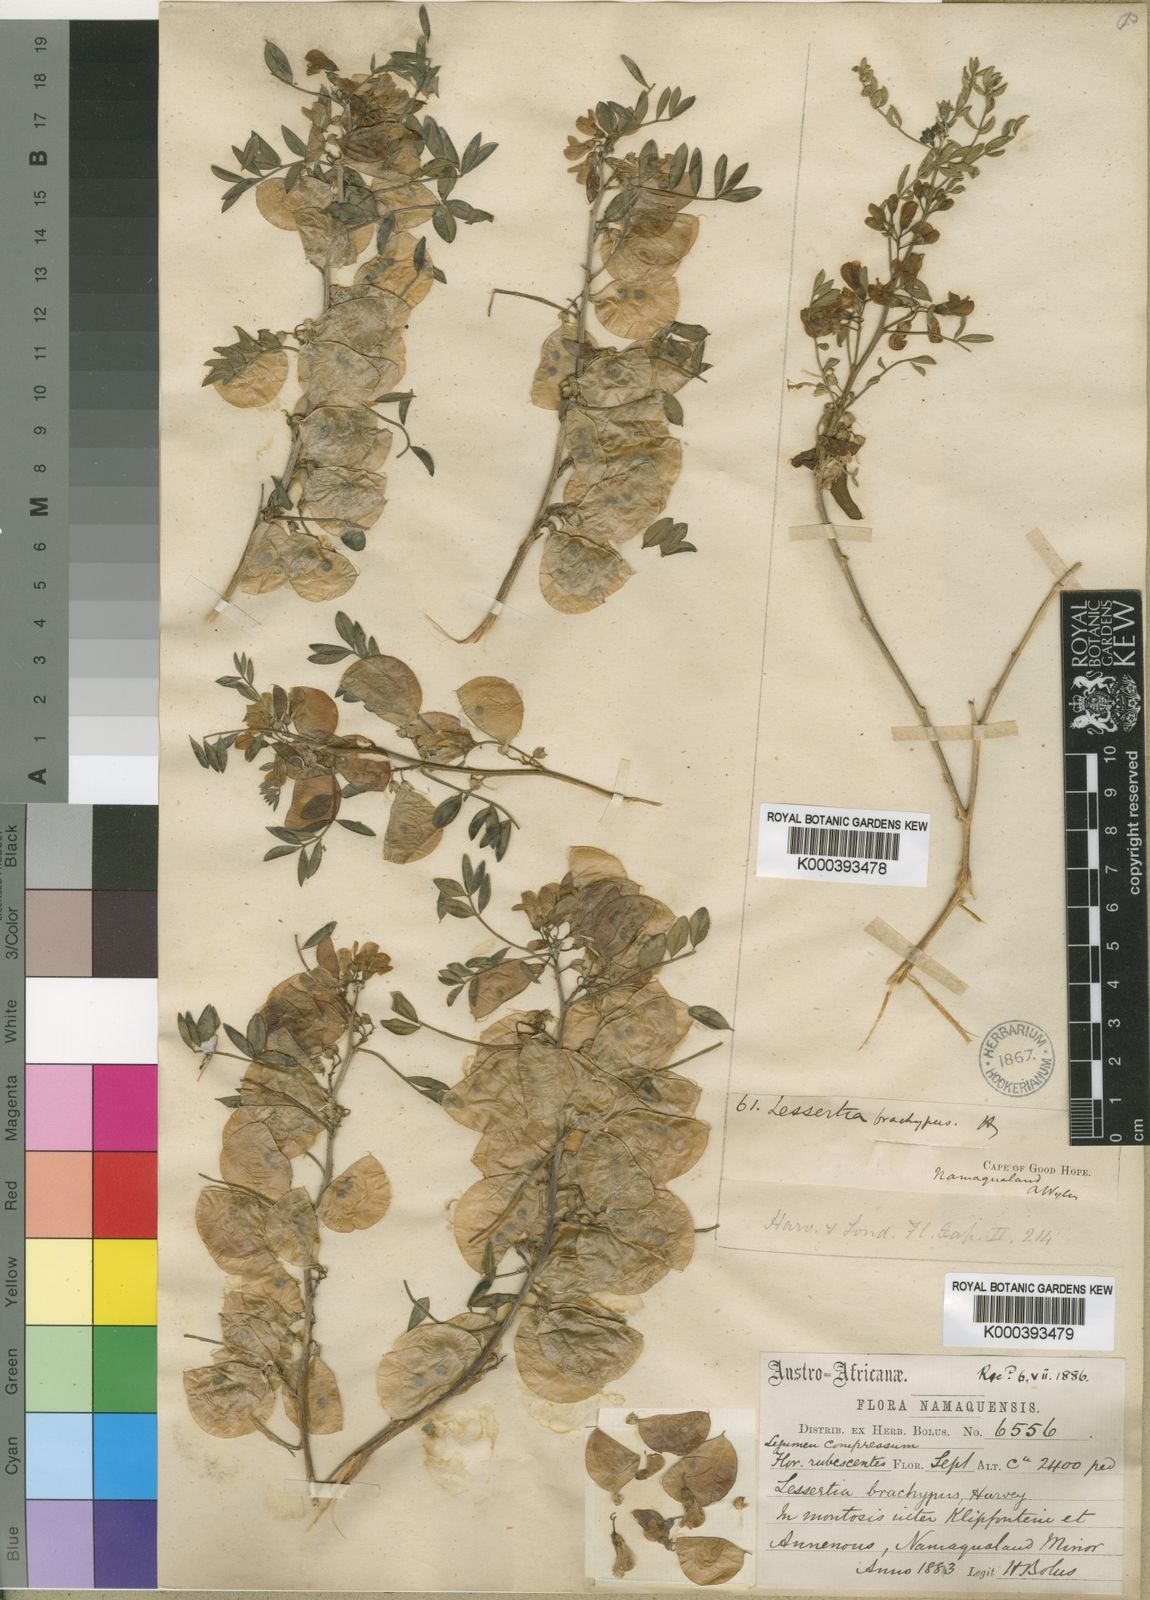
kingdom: Plantae
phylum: Tracheophyta
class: Magnoliopsida
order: Fabales
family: Fabaceae
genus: Lessertia
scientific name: Lessertia brachypus
